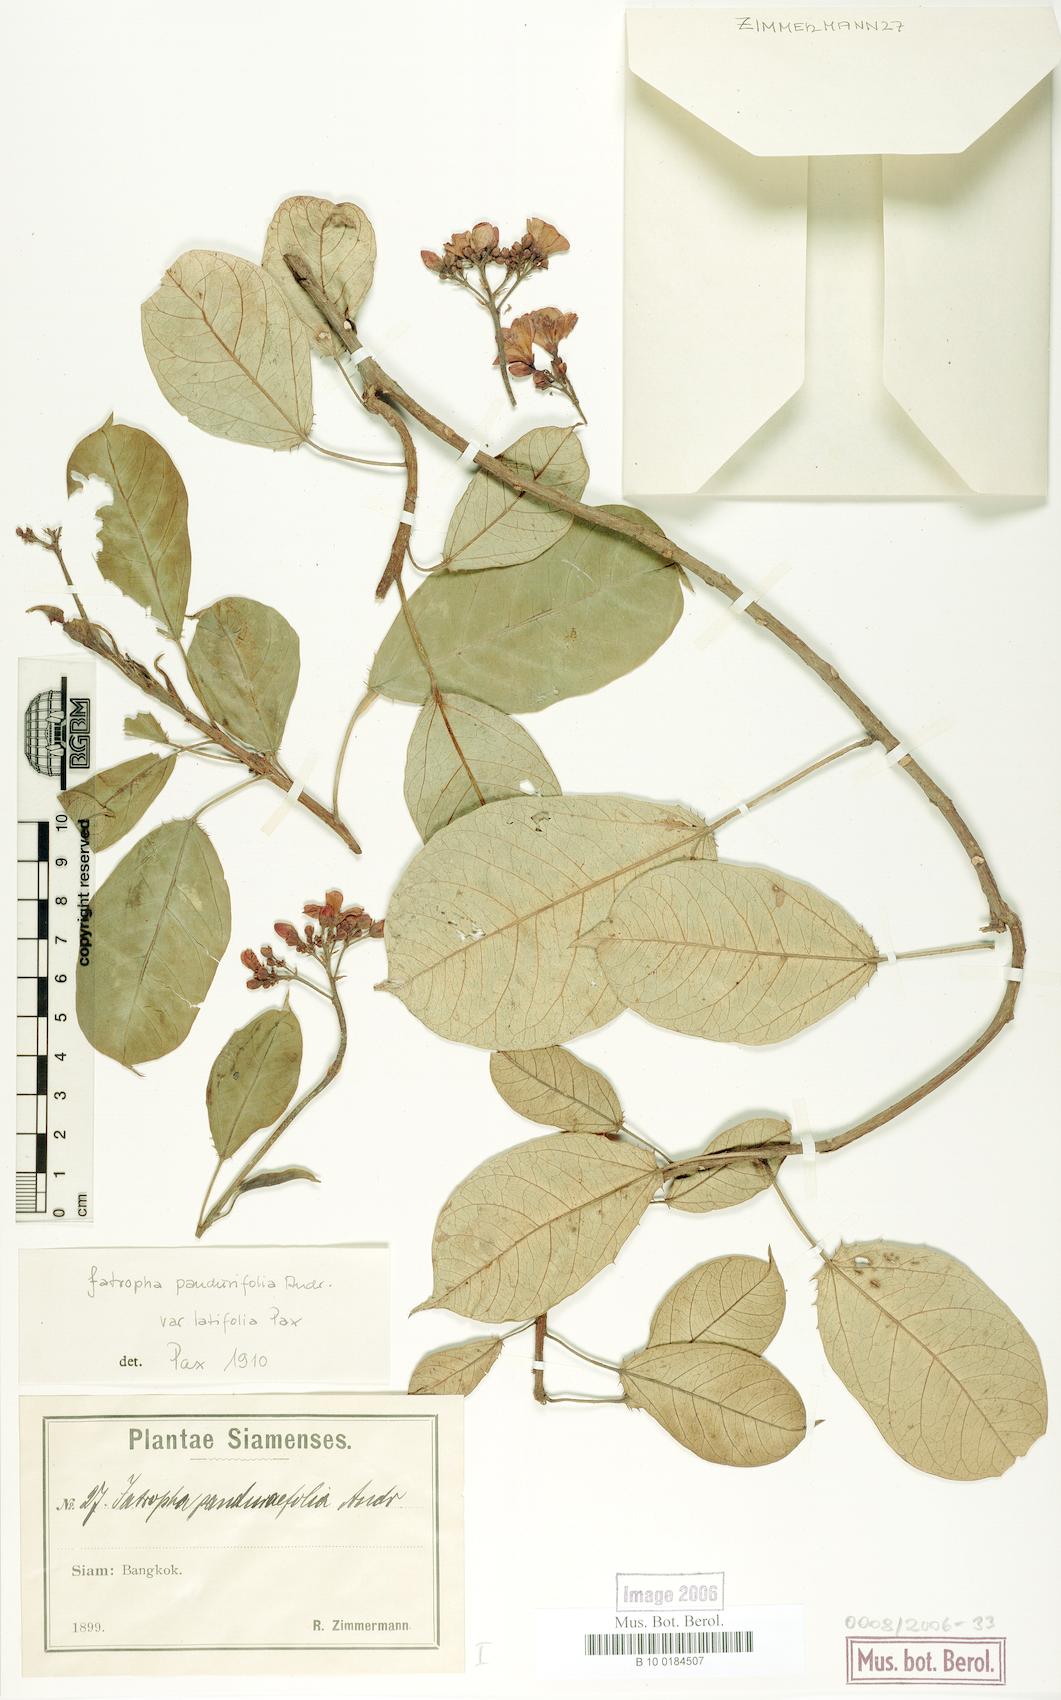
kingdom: Plantae
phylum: Tracheophyta
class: Magnoliopsida
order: Malpighiales
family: Euphorbiaceae
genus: Jatropha
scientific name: Jatropha integerrima
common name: Peregrina
